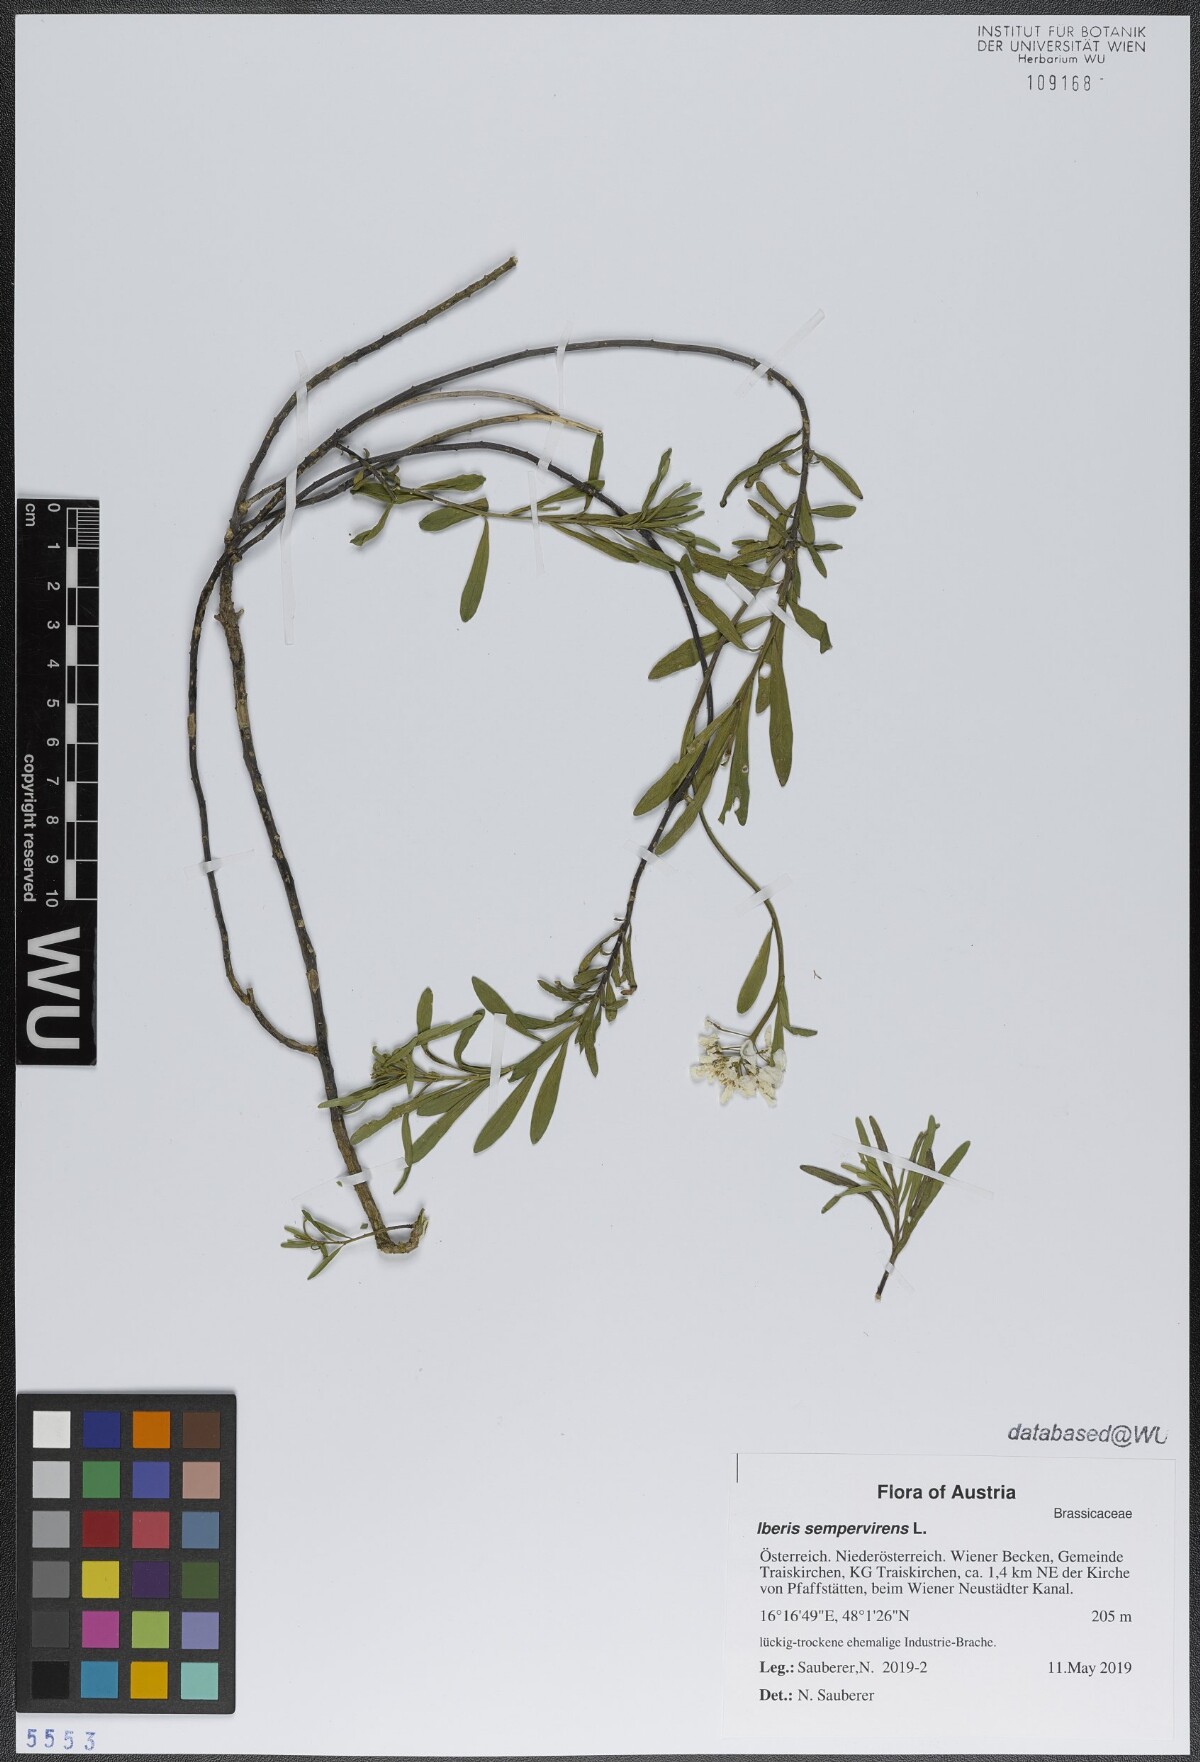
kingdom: Plantae
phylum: Tracheophyta
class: Magnoliopsida
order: Brassicales
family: Brassicaceae
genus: Iberis
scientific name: Iberis sempervirens
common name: Evergreen candytuft
